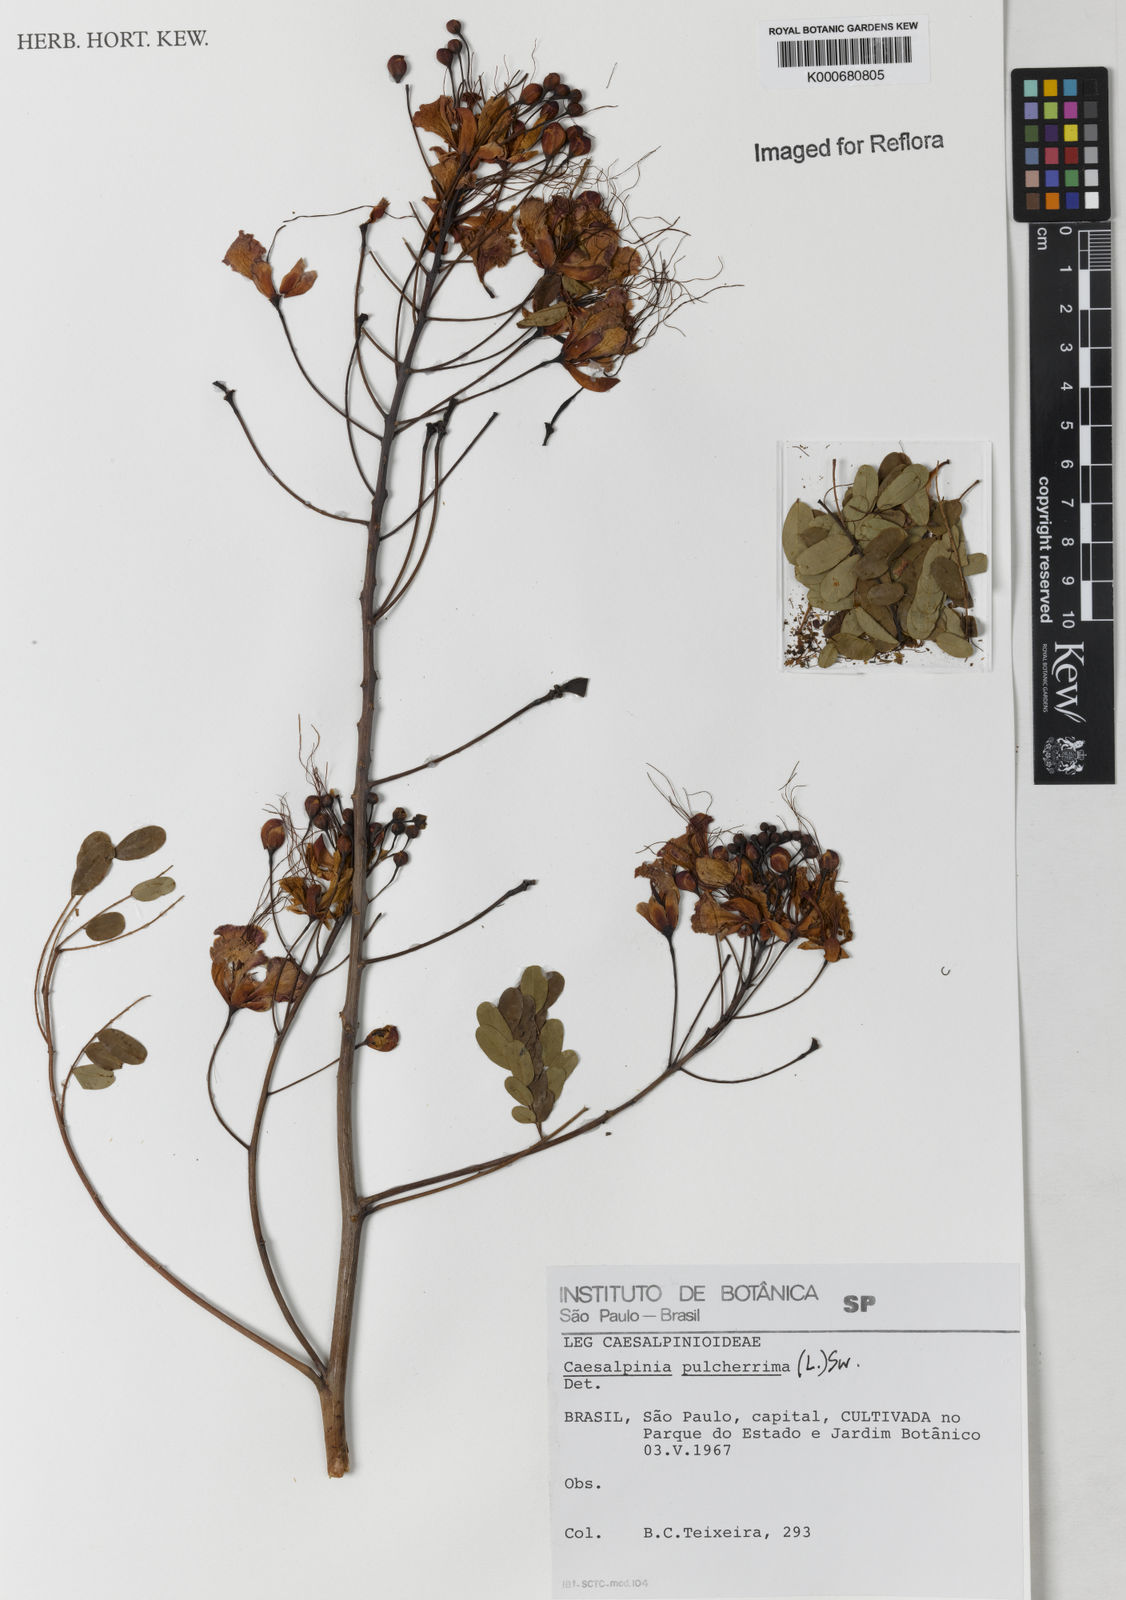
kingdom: Plantae
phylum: Tracheophyta
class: Magnoliopsida
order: Fabales
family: Fabaceae
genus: Caesalpinia
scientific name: Caesalpinia pulcherrima
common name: Pride-of-barbados
